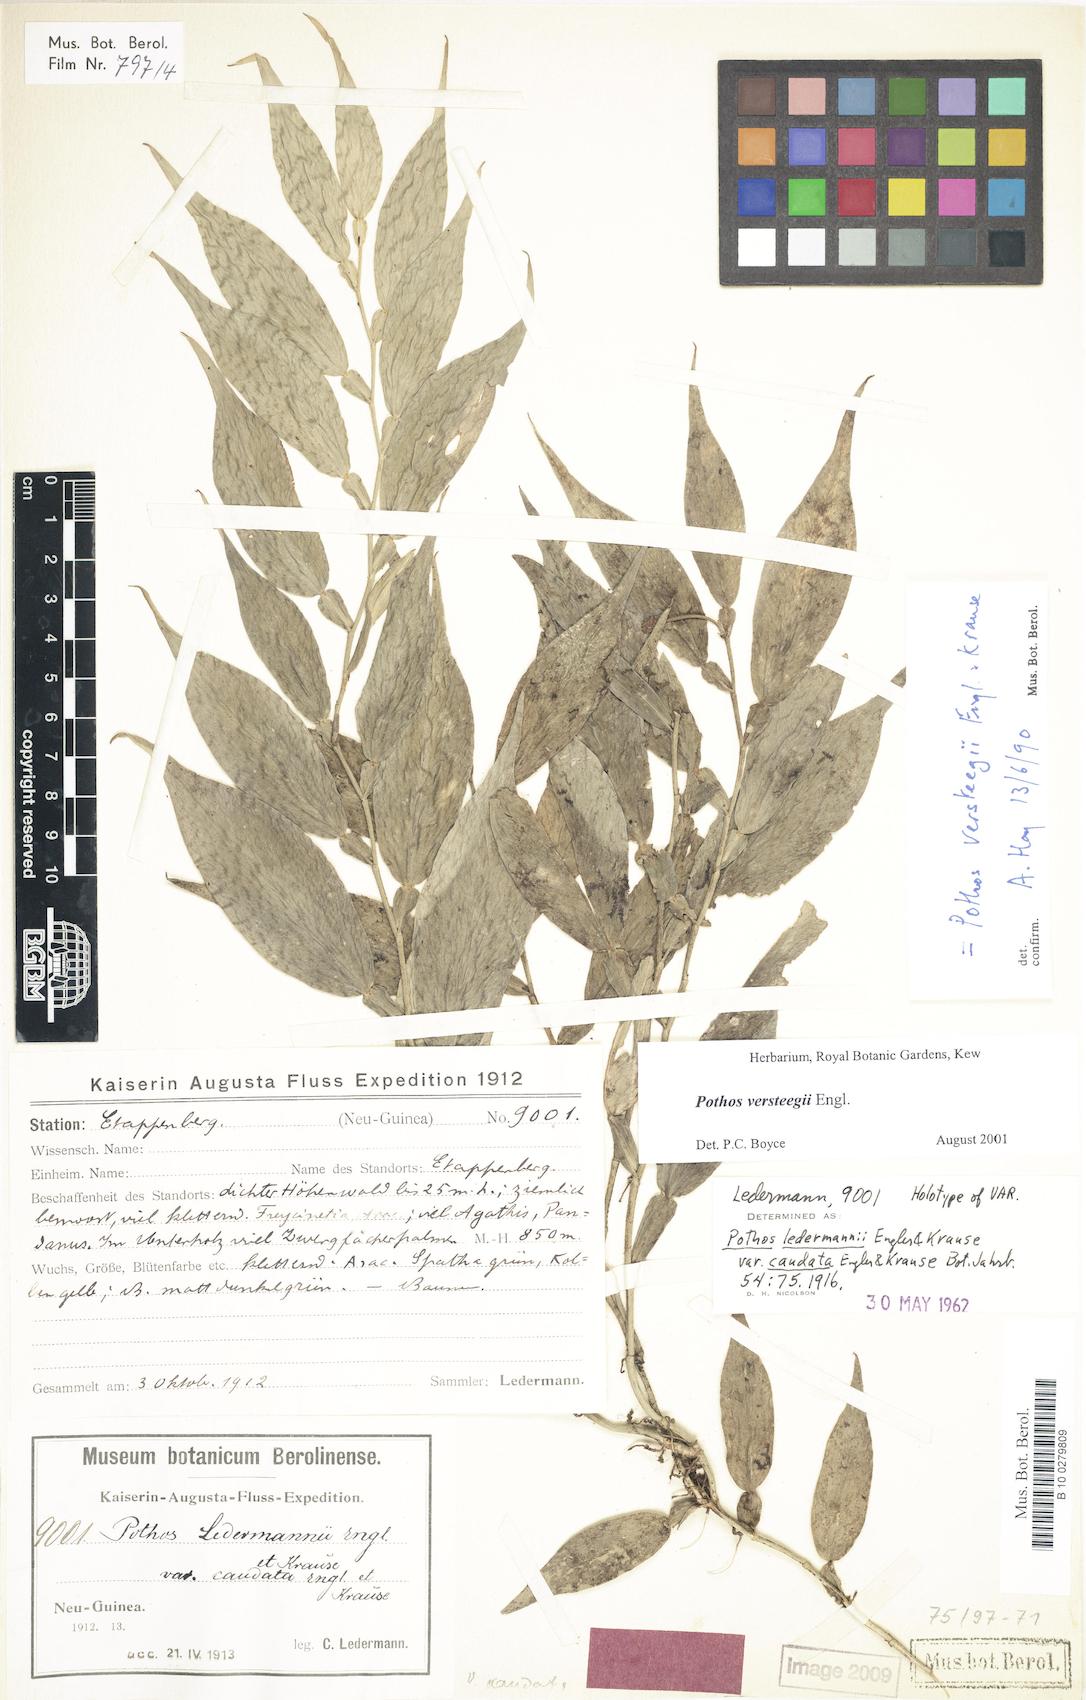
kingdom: Plantae
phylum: Tracheophyta
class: Liliopsida
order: Alismatales
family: Araceae
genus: Pothos
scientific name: Pothos versteegii
